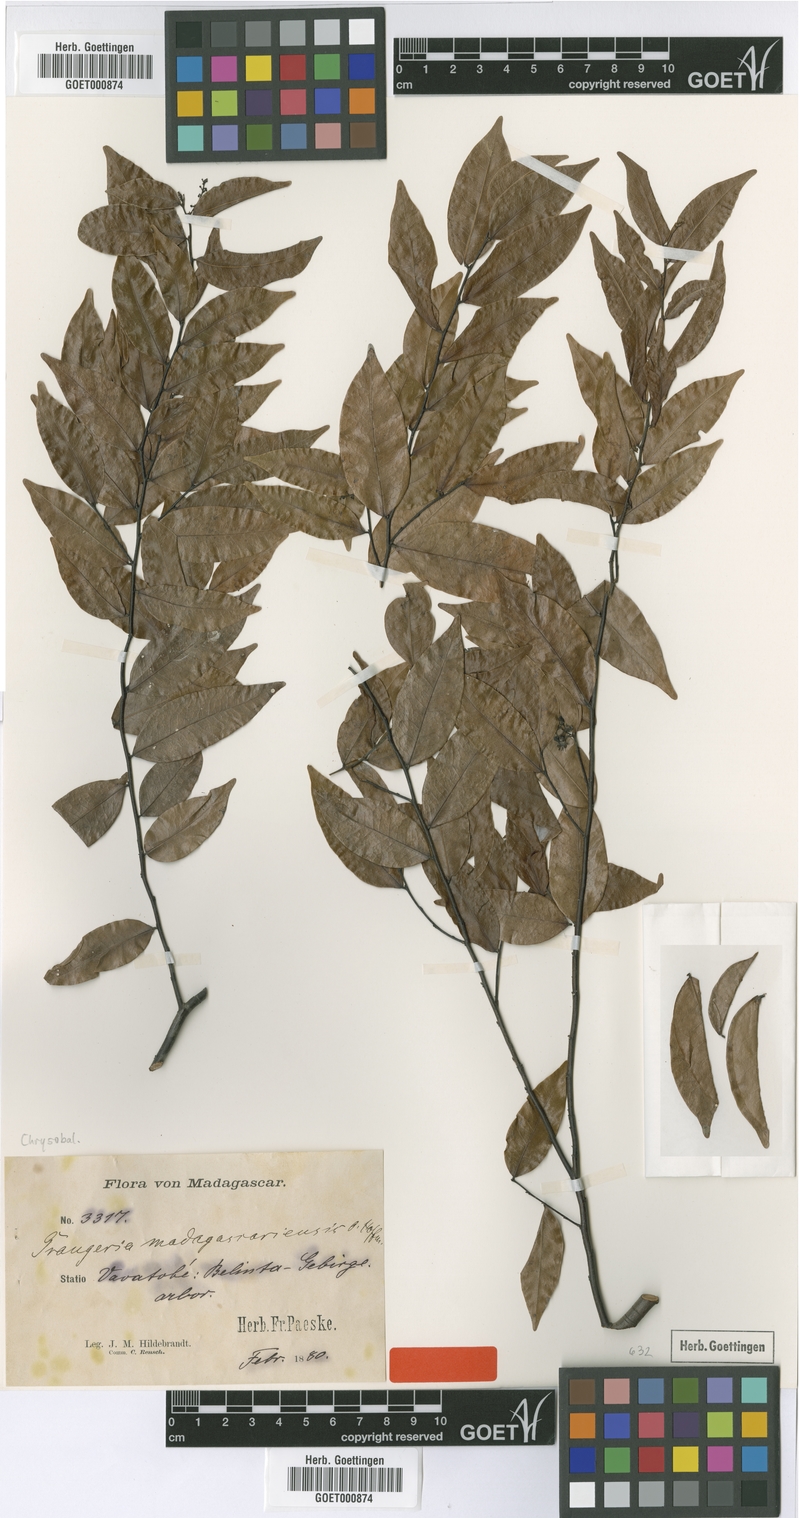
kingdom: Plantae
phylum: Tracheophyta
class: Magnoliopsida
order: Malpighiales
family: Chrysobalanaceae
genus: Grangeria
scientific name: Grangeria porosa
